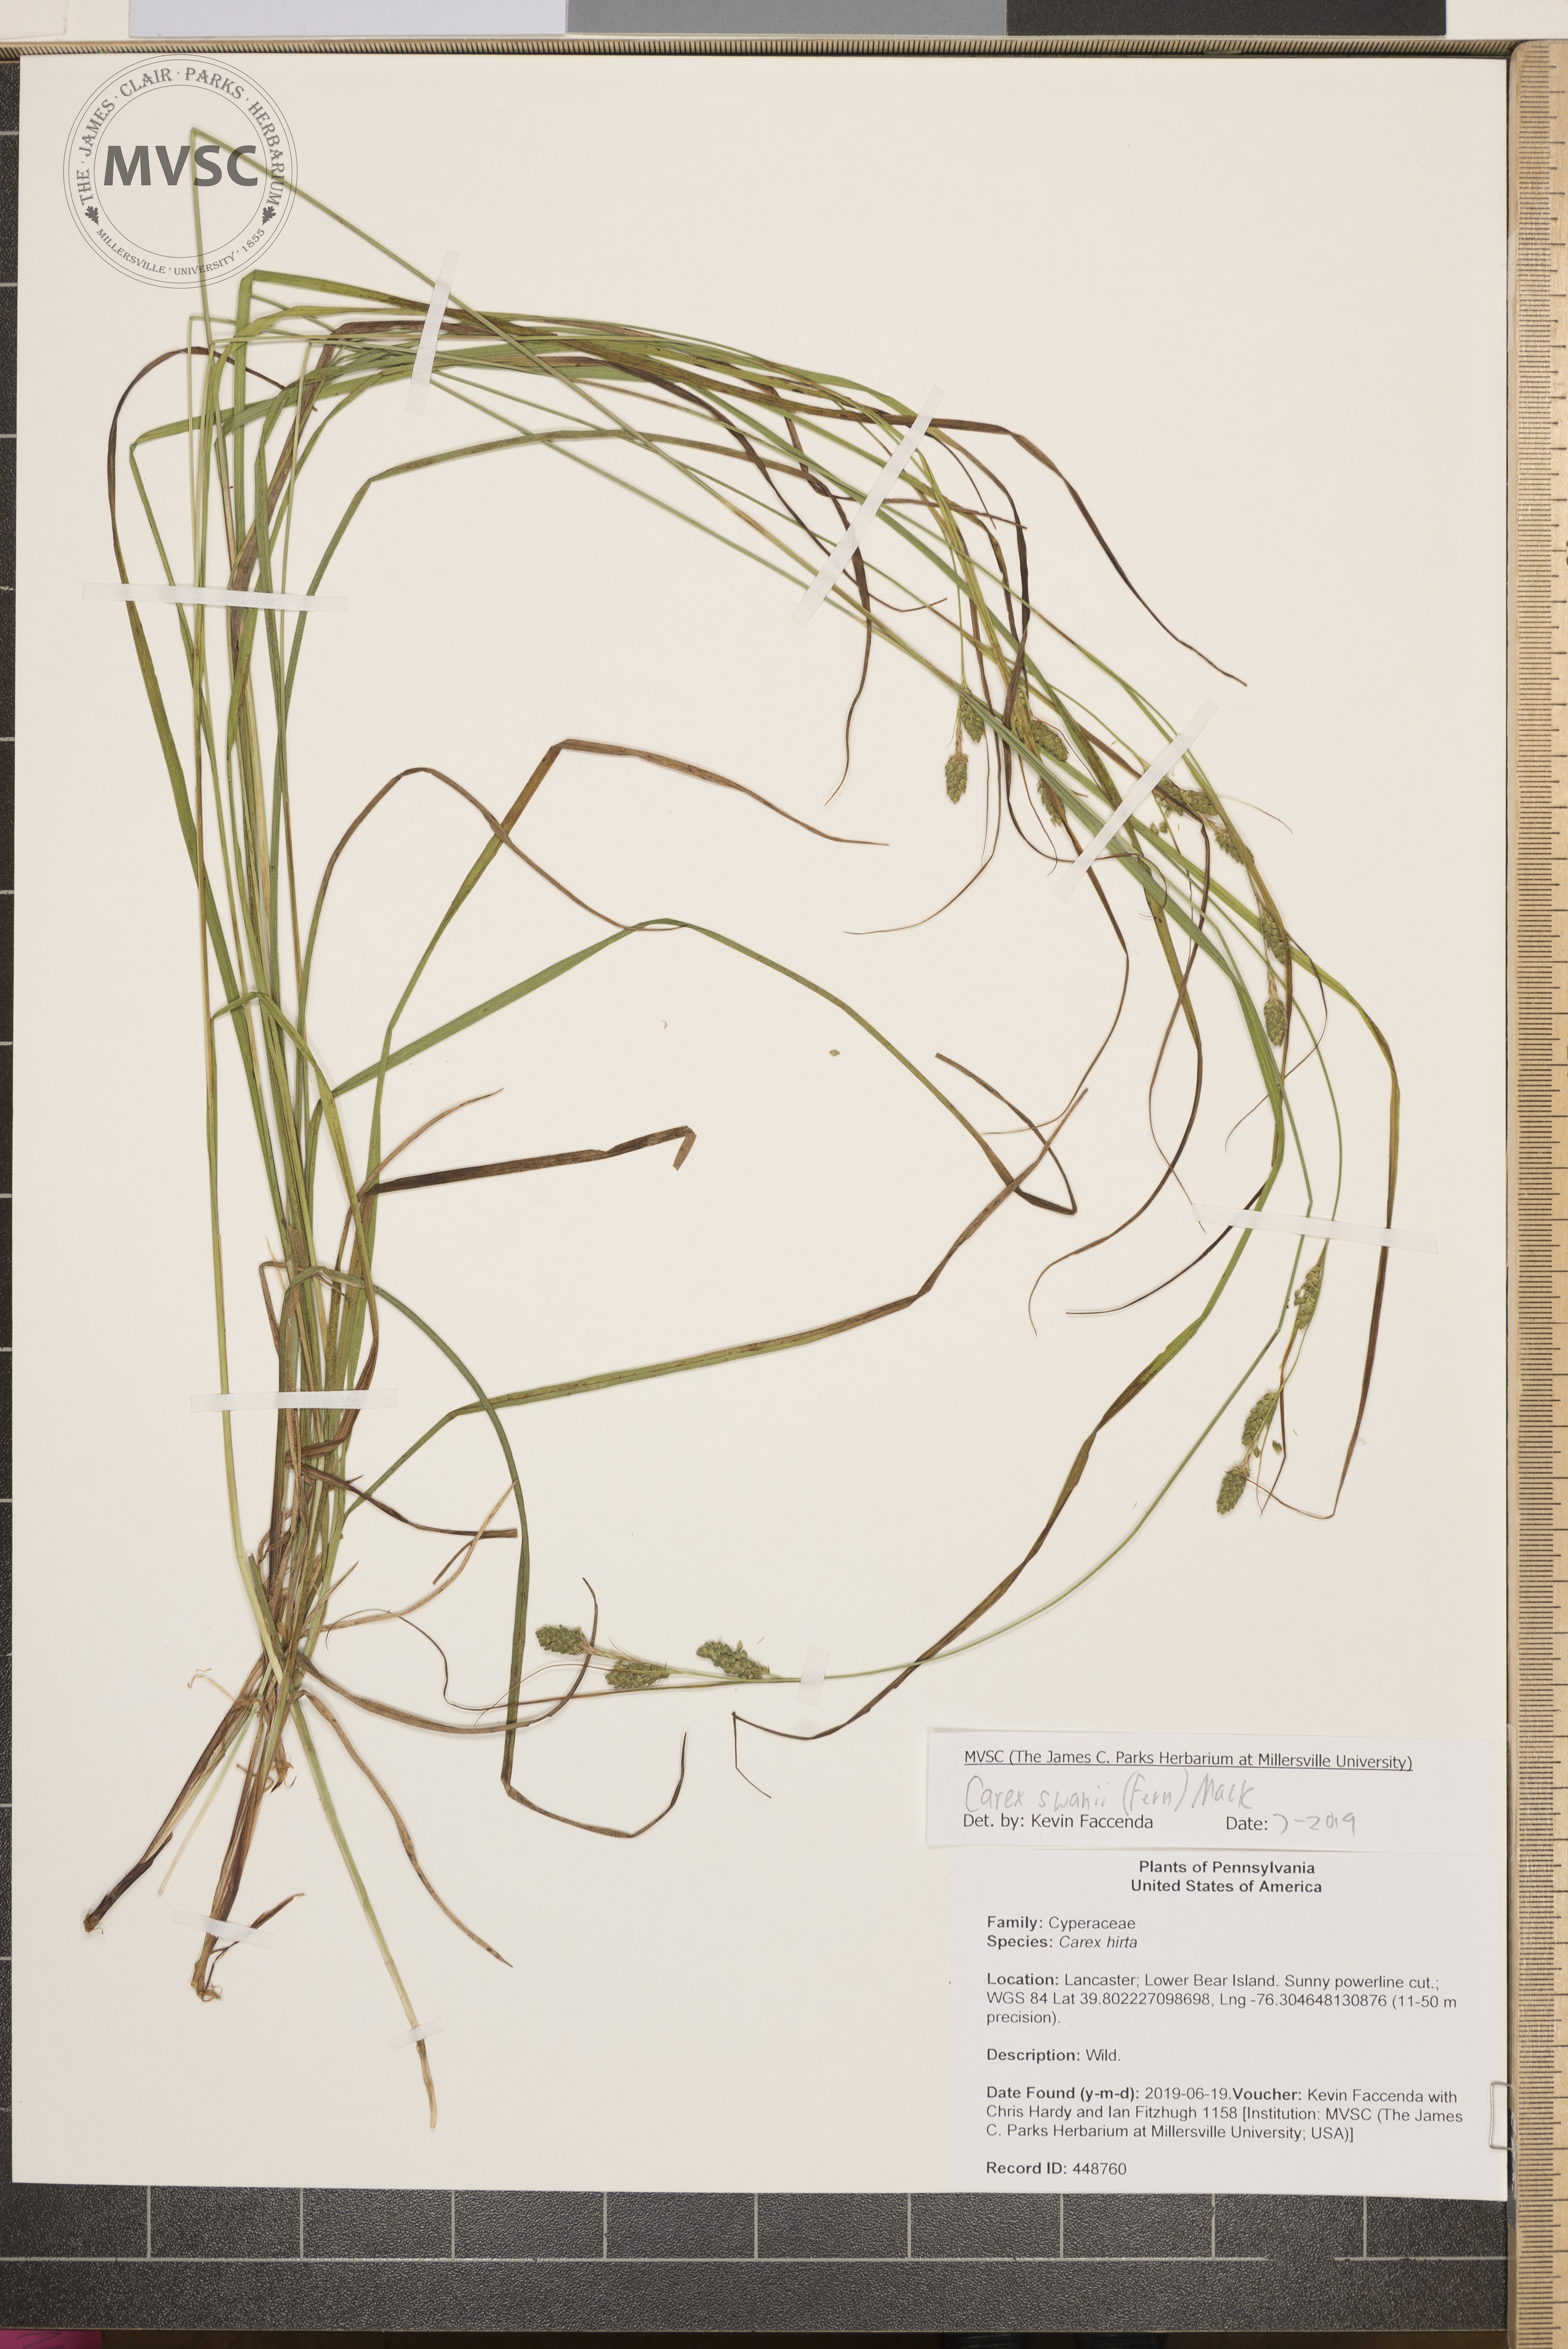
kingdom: Plantae
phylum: Tracheophyta
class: Liliopsida
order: Poales
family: Cyperaceae
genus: Carex
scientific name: Carex swanii
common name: Downy green sedge
